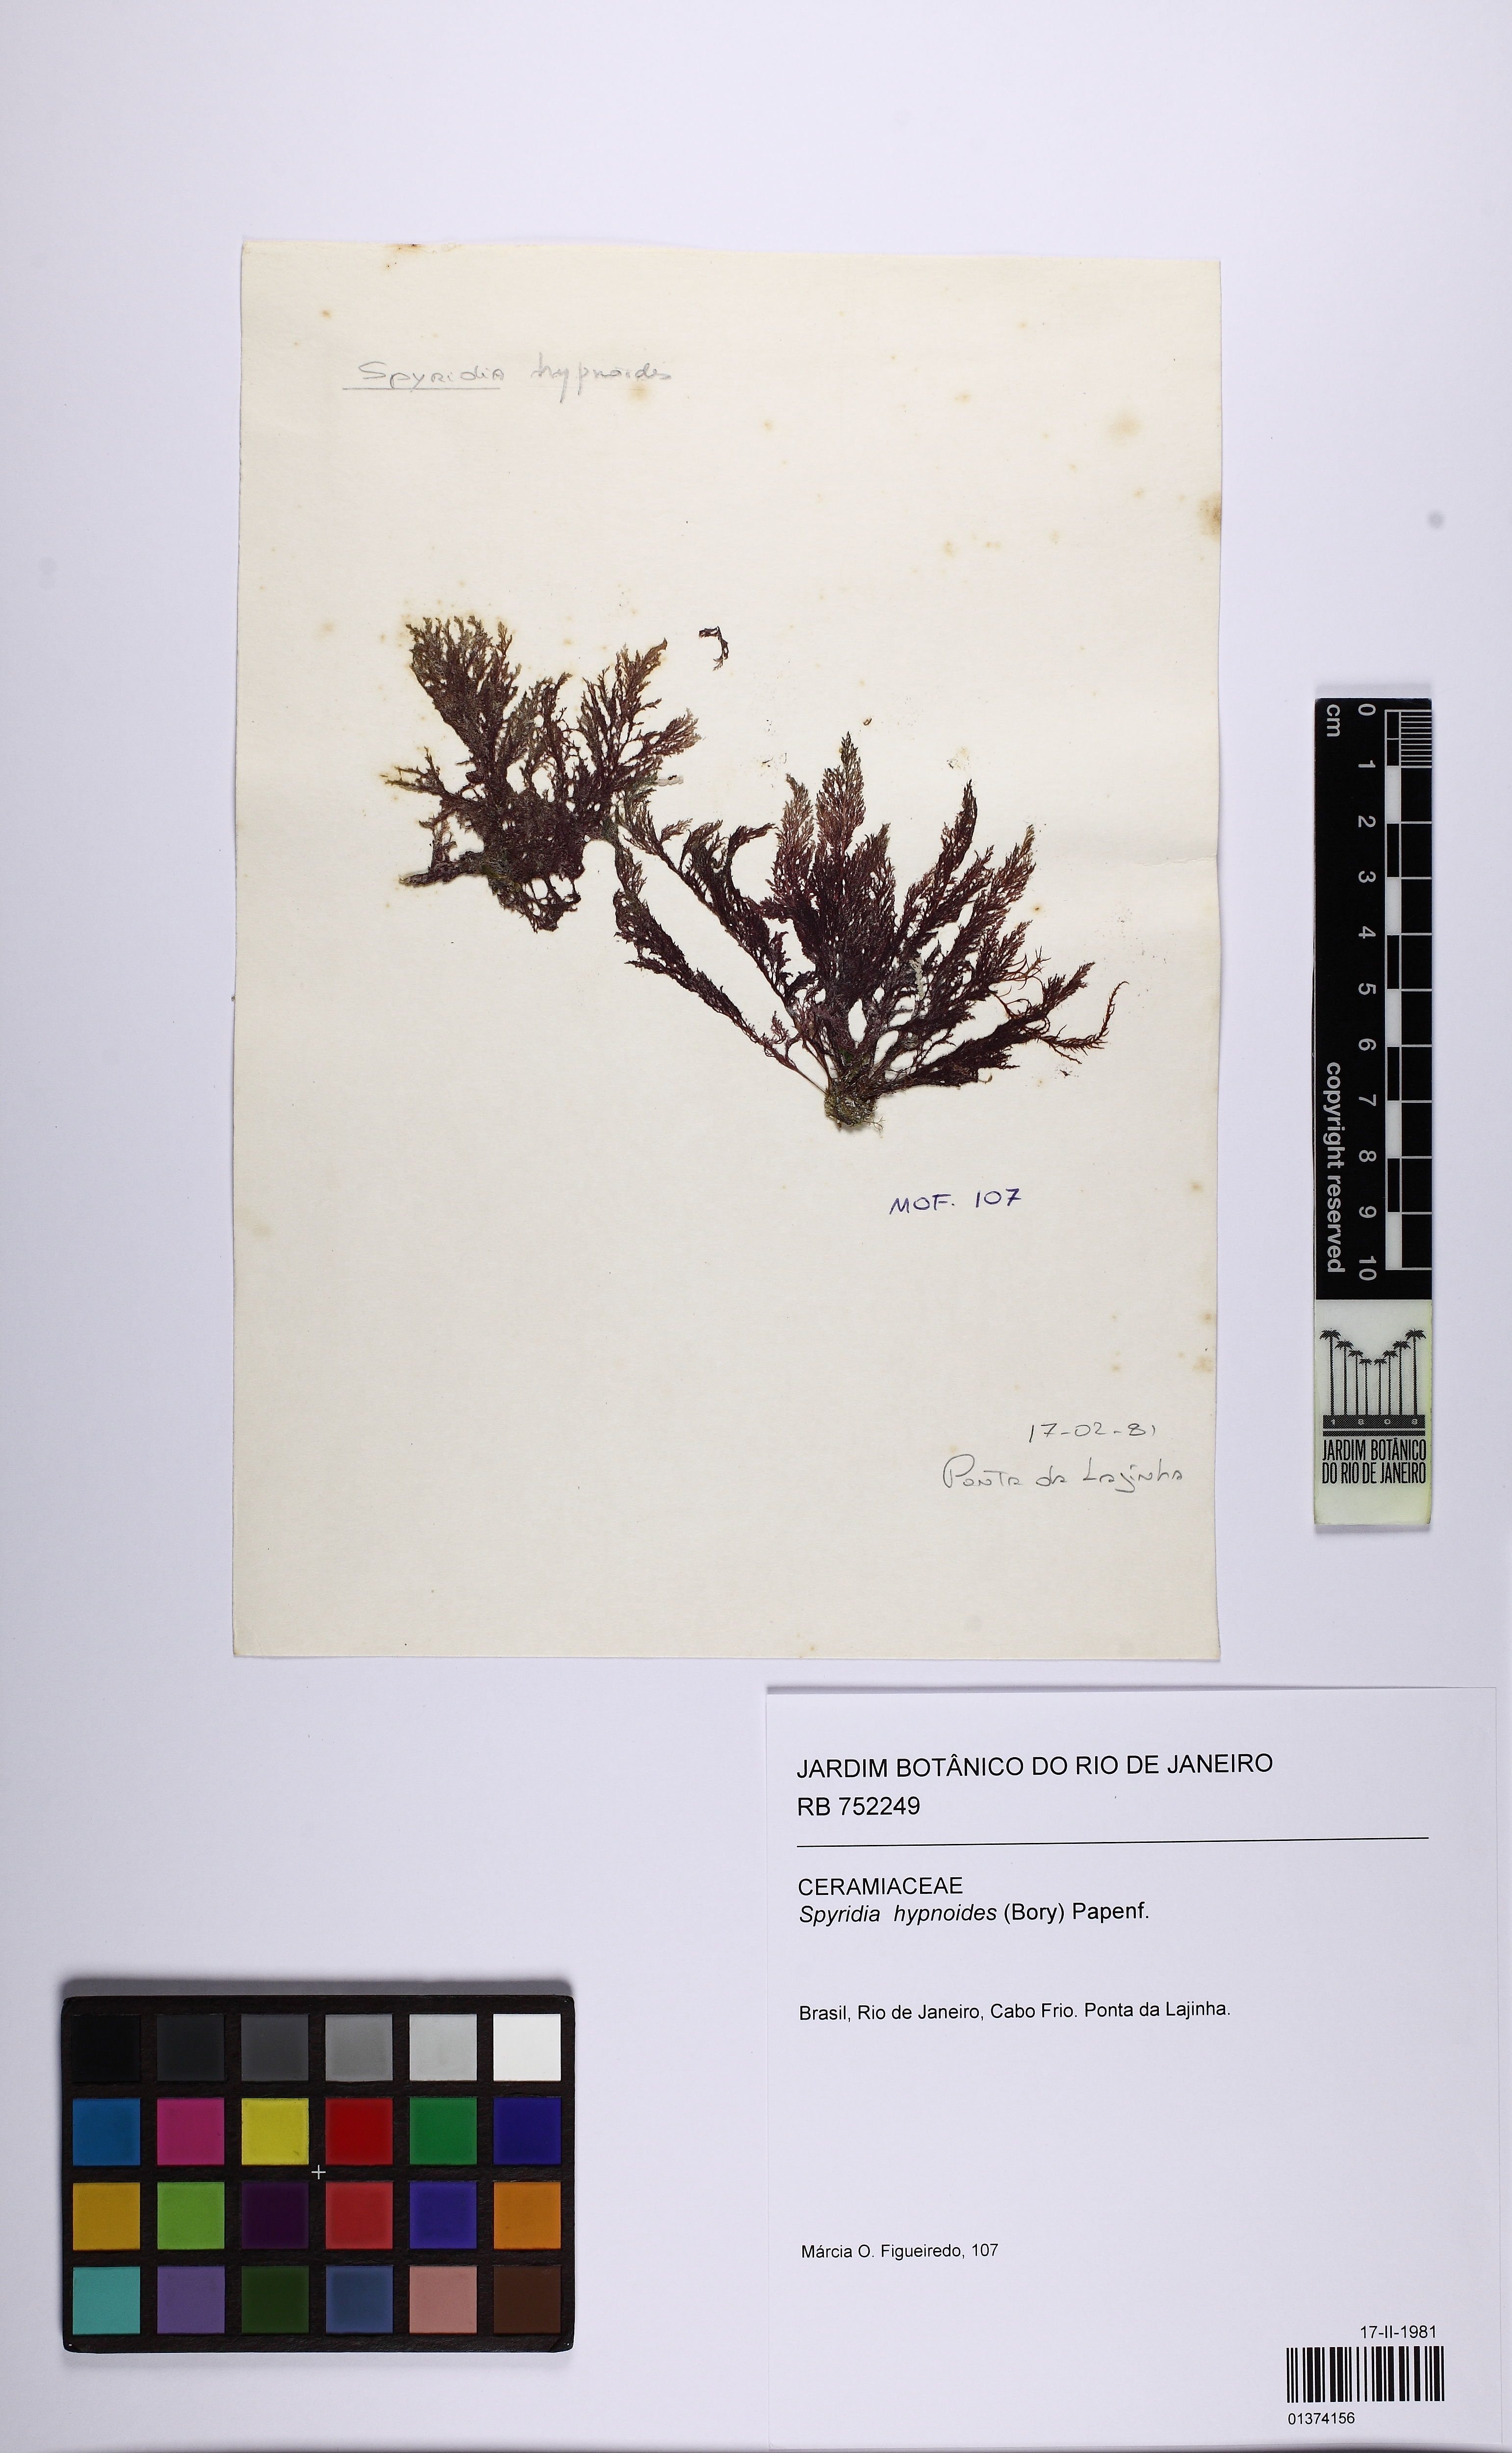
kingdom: Plantae
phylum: Rhodophyta
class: Florideophyceae
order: Ceramiales
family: Spyridiaceae
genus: Spyridia
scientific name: Spyridia hypnoides
